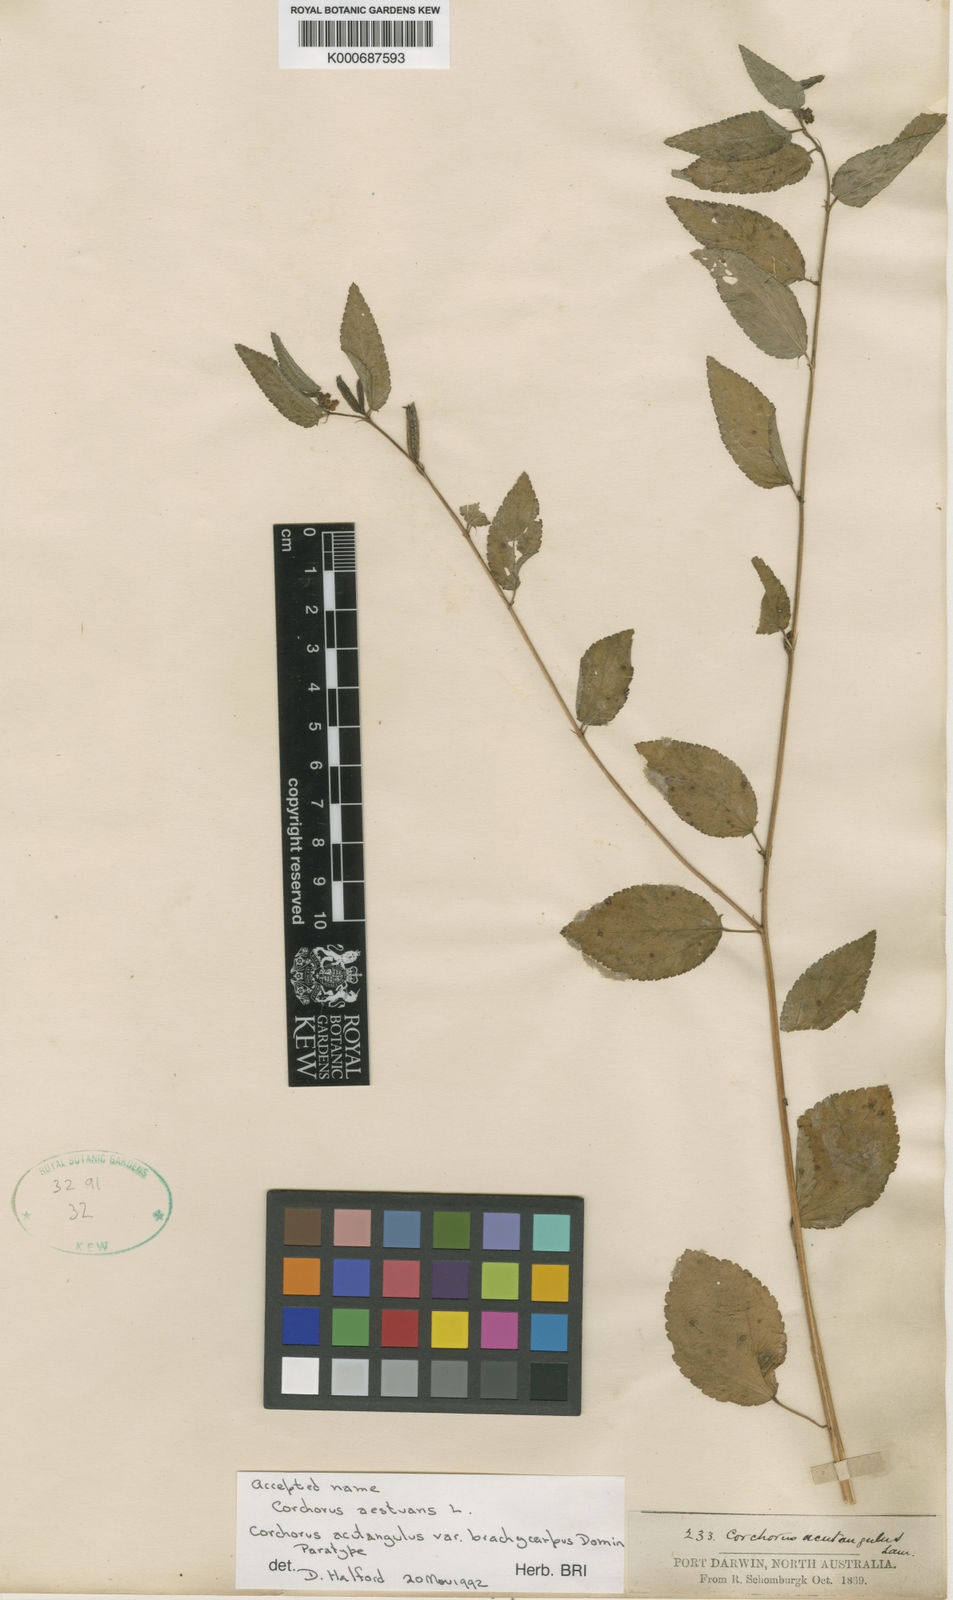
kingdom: Plantae
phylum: Tracheophyta
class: Magnoliopsida
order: Malvales
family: Malvaceae
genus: Corchorus
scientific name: Corchorus aestuans
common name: Jute
